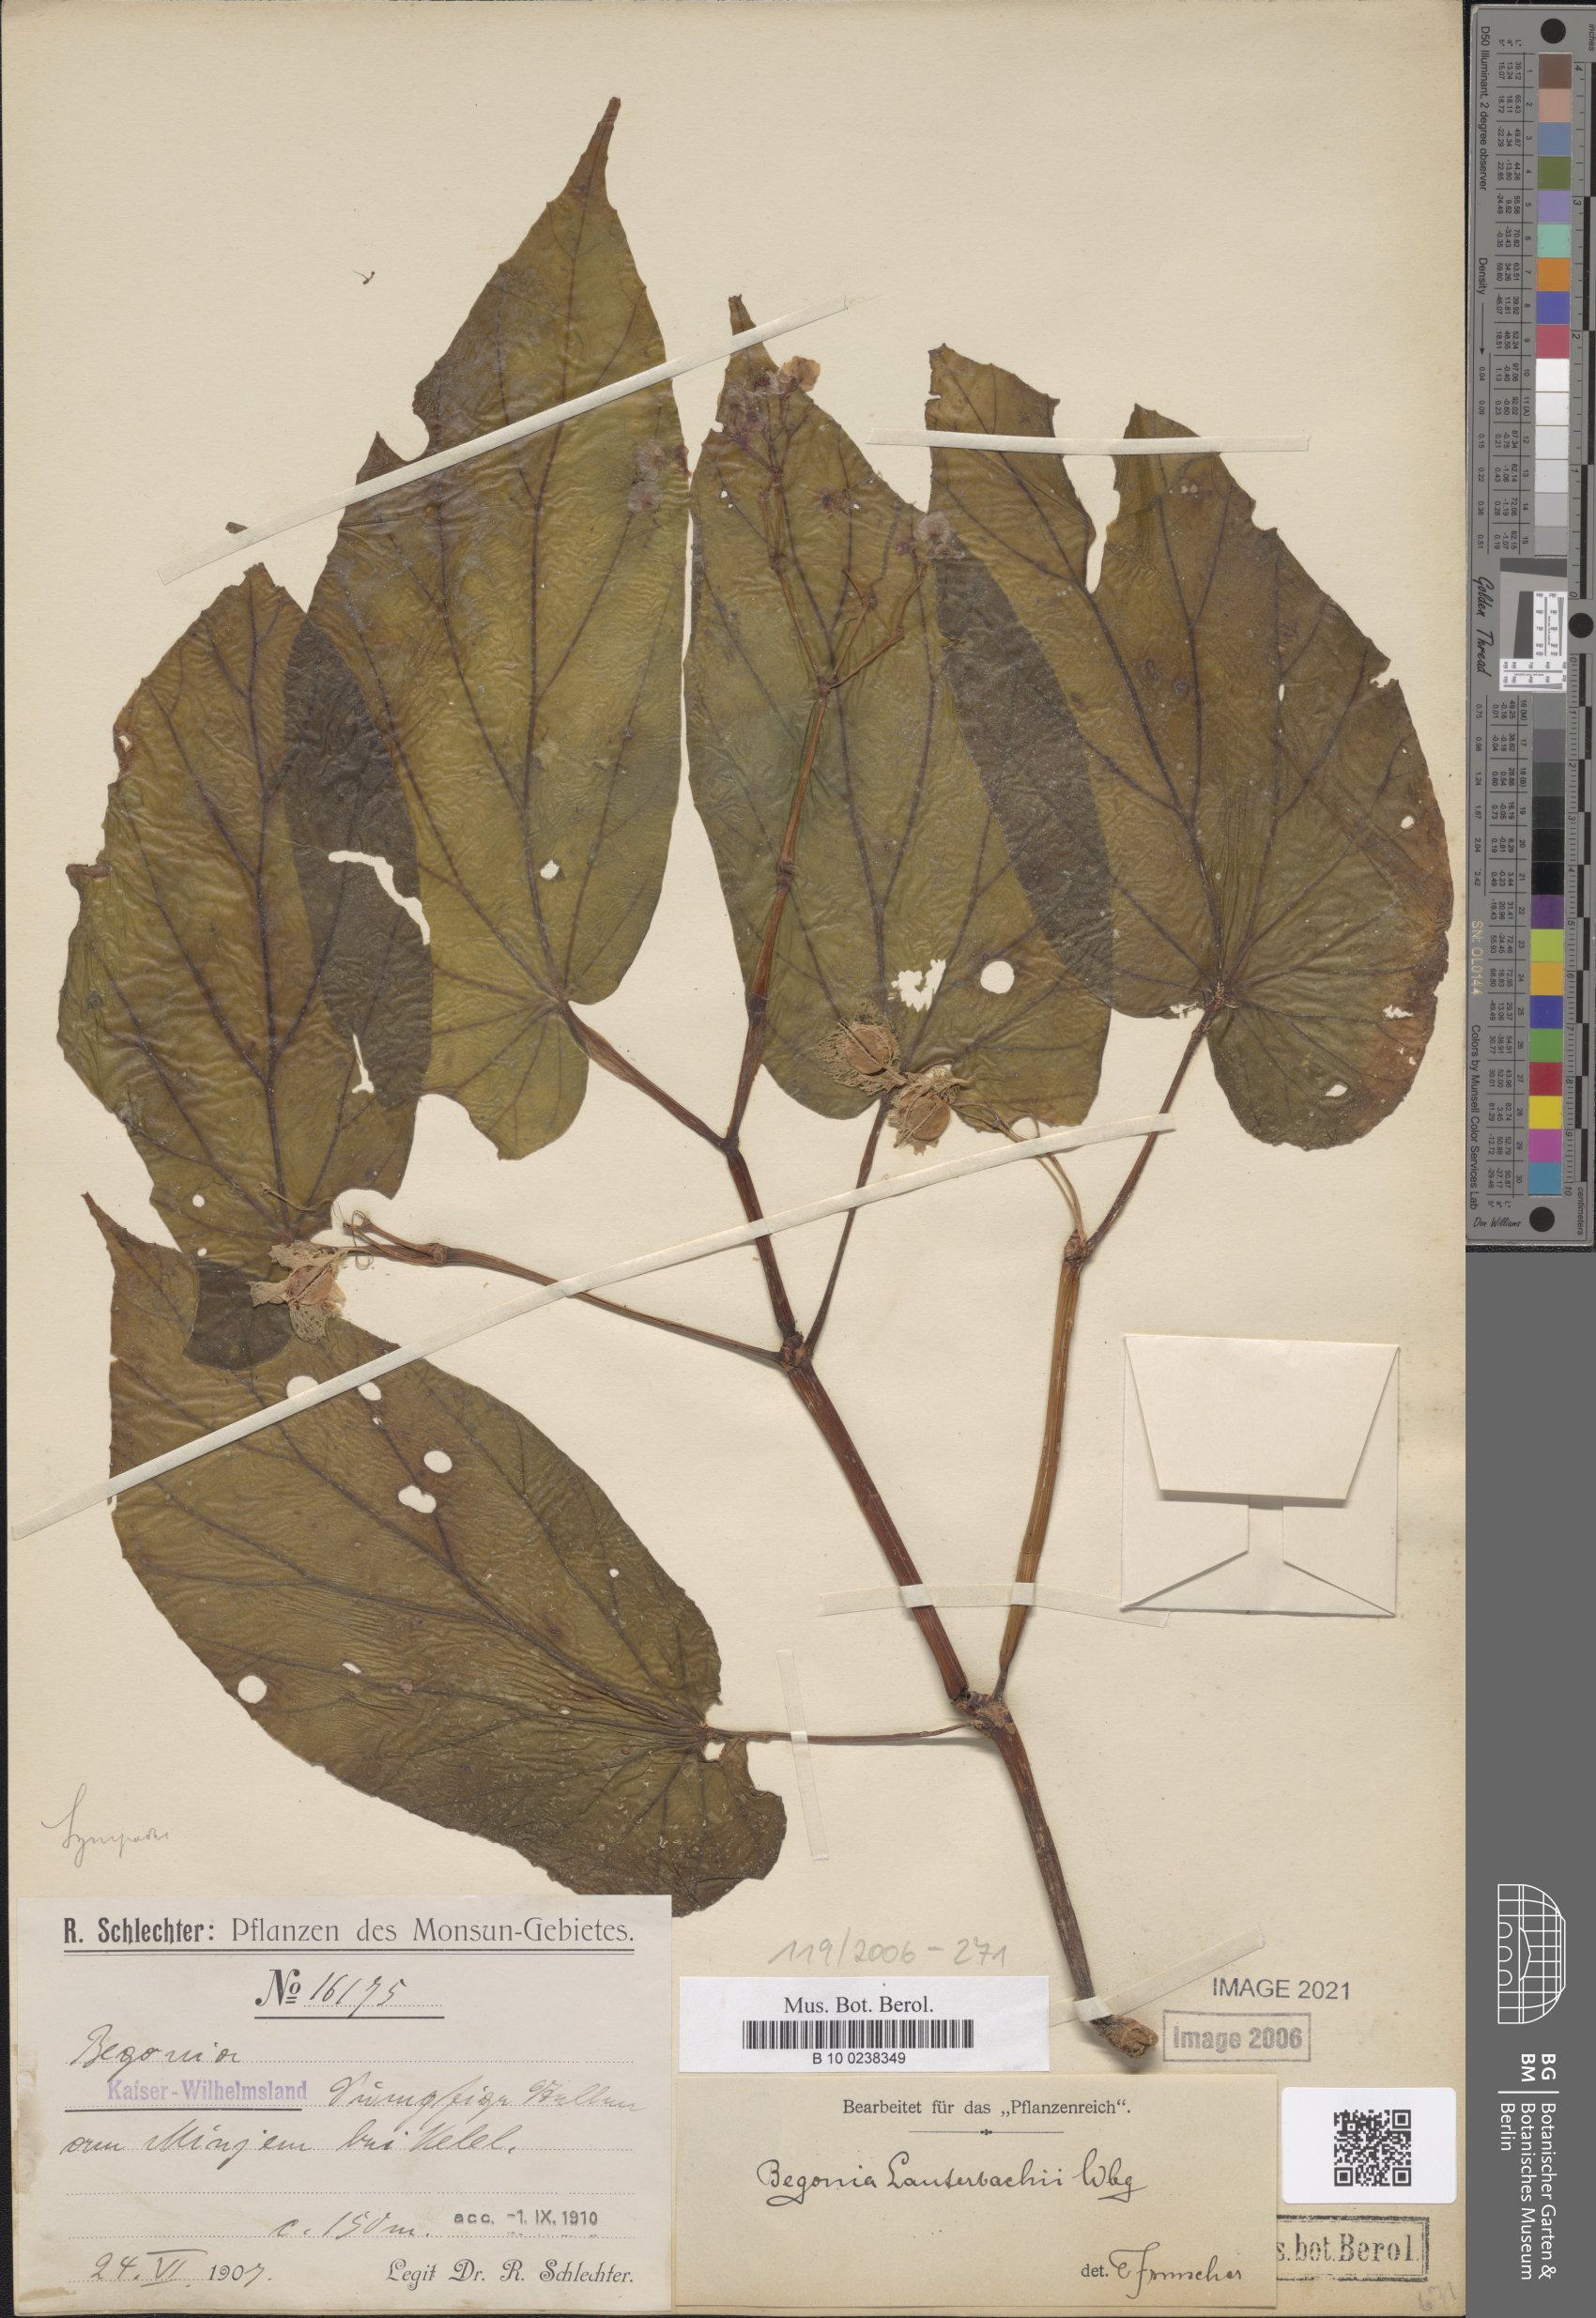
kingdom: Plantae
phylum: Tracheophyta
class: Magnoliopsida
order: Cucurbitales
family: Begoniaceae
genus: Begonia
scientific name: Begonia lauterbachii
